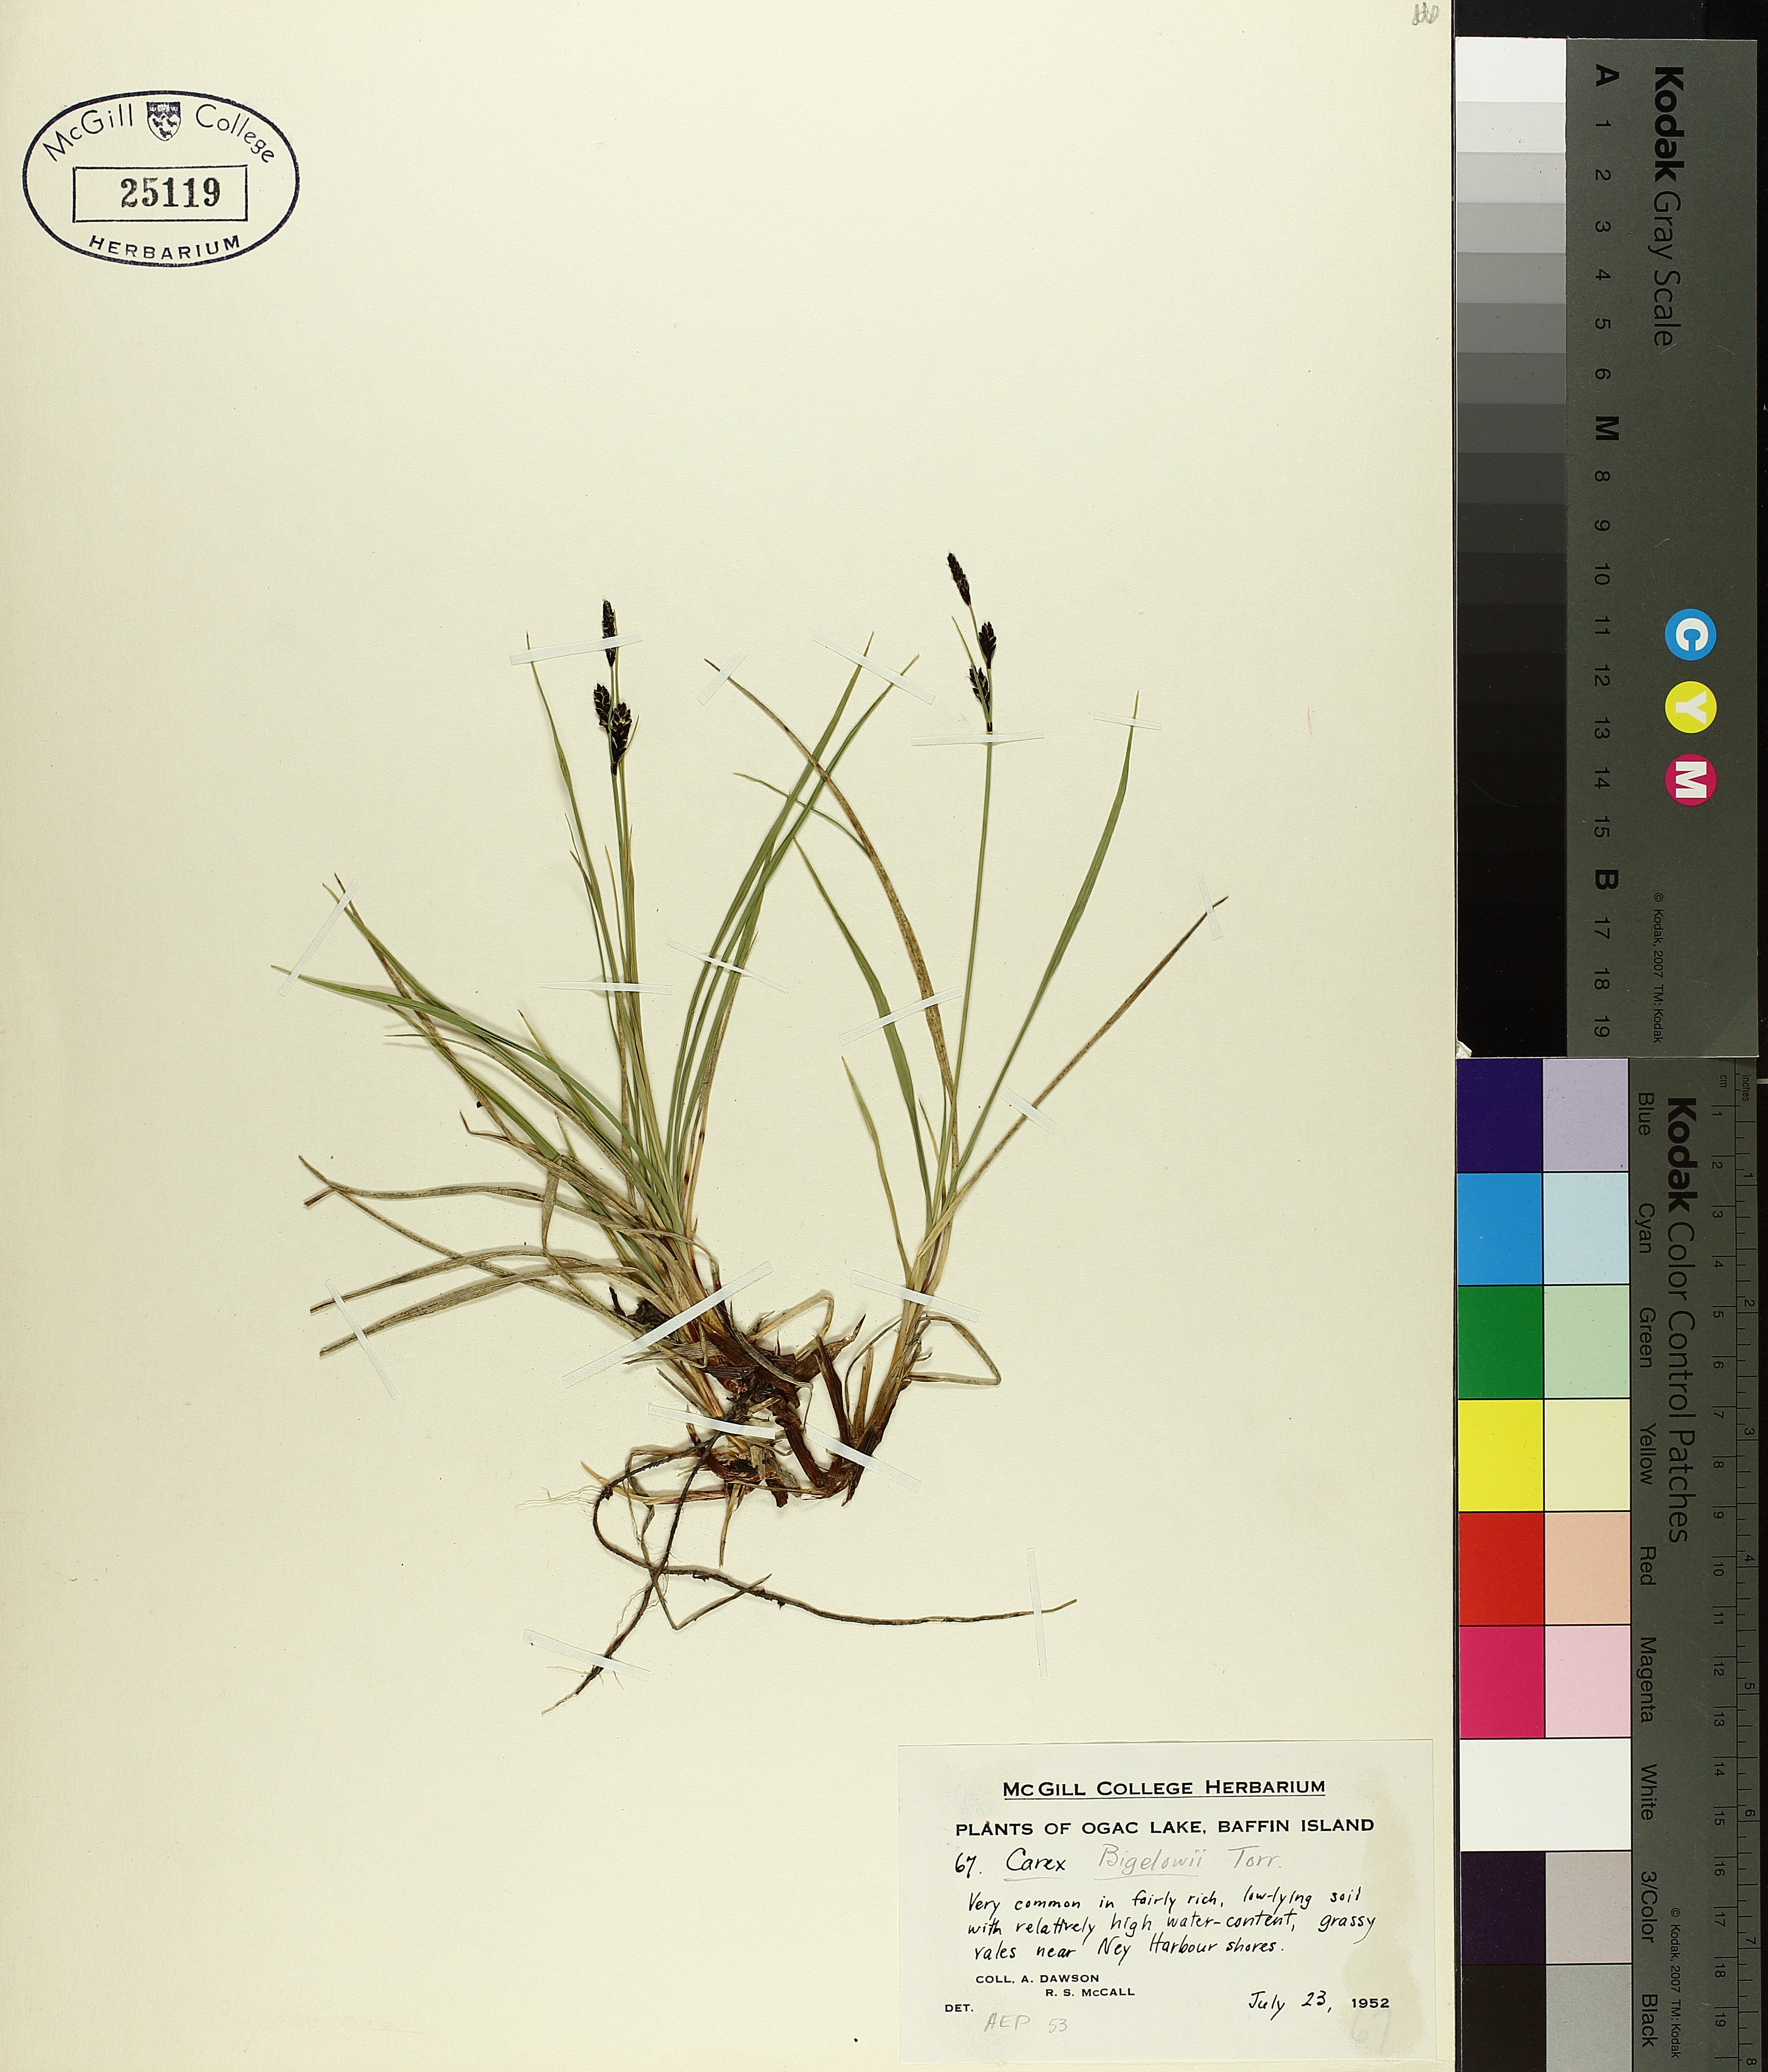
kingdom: Plantae
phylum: Tracheophyta
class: Liliopsida
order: Poales
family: Cyperaceae
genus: Carex
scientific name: Carex bigelowii
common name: Stiff sedge
